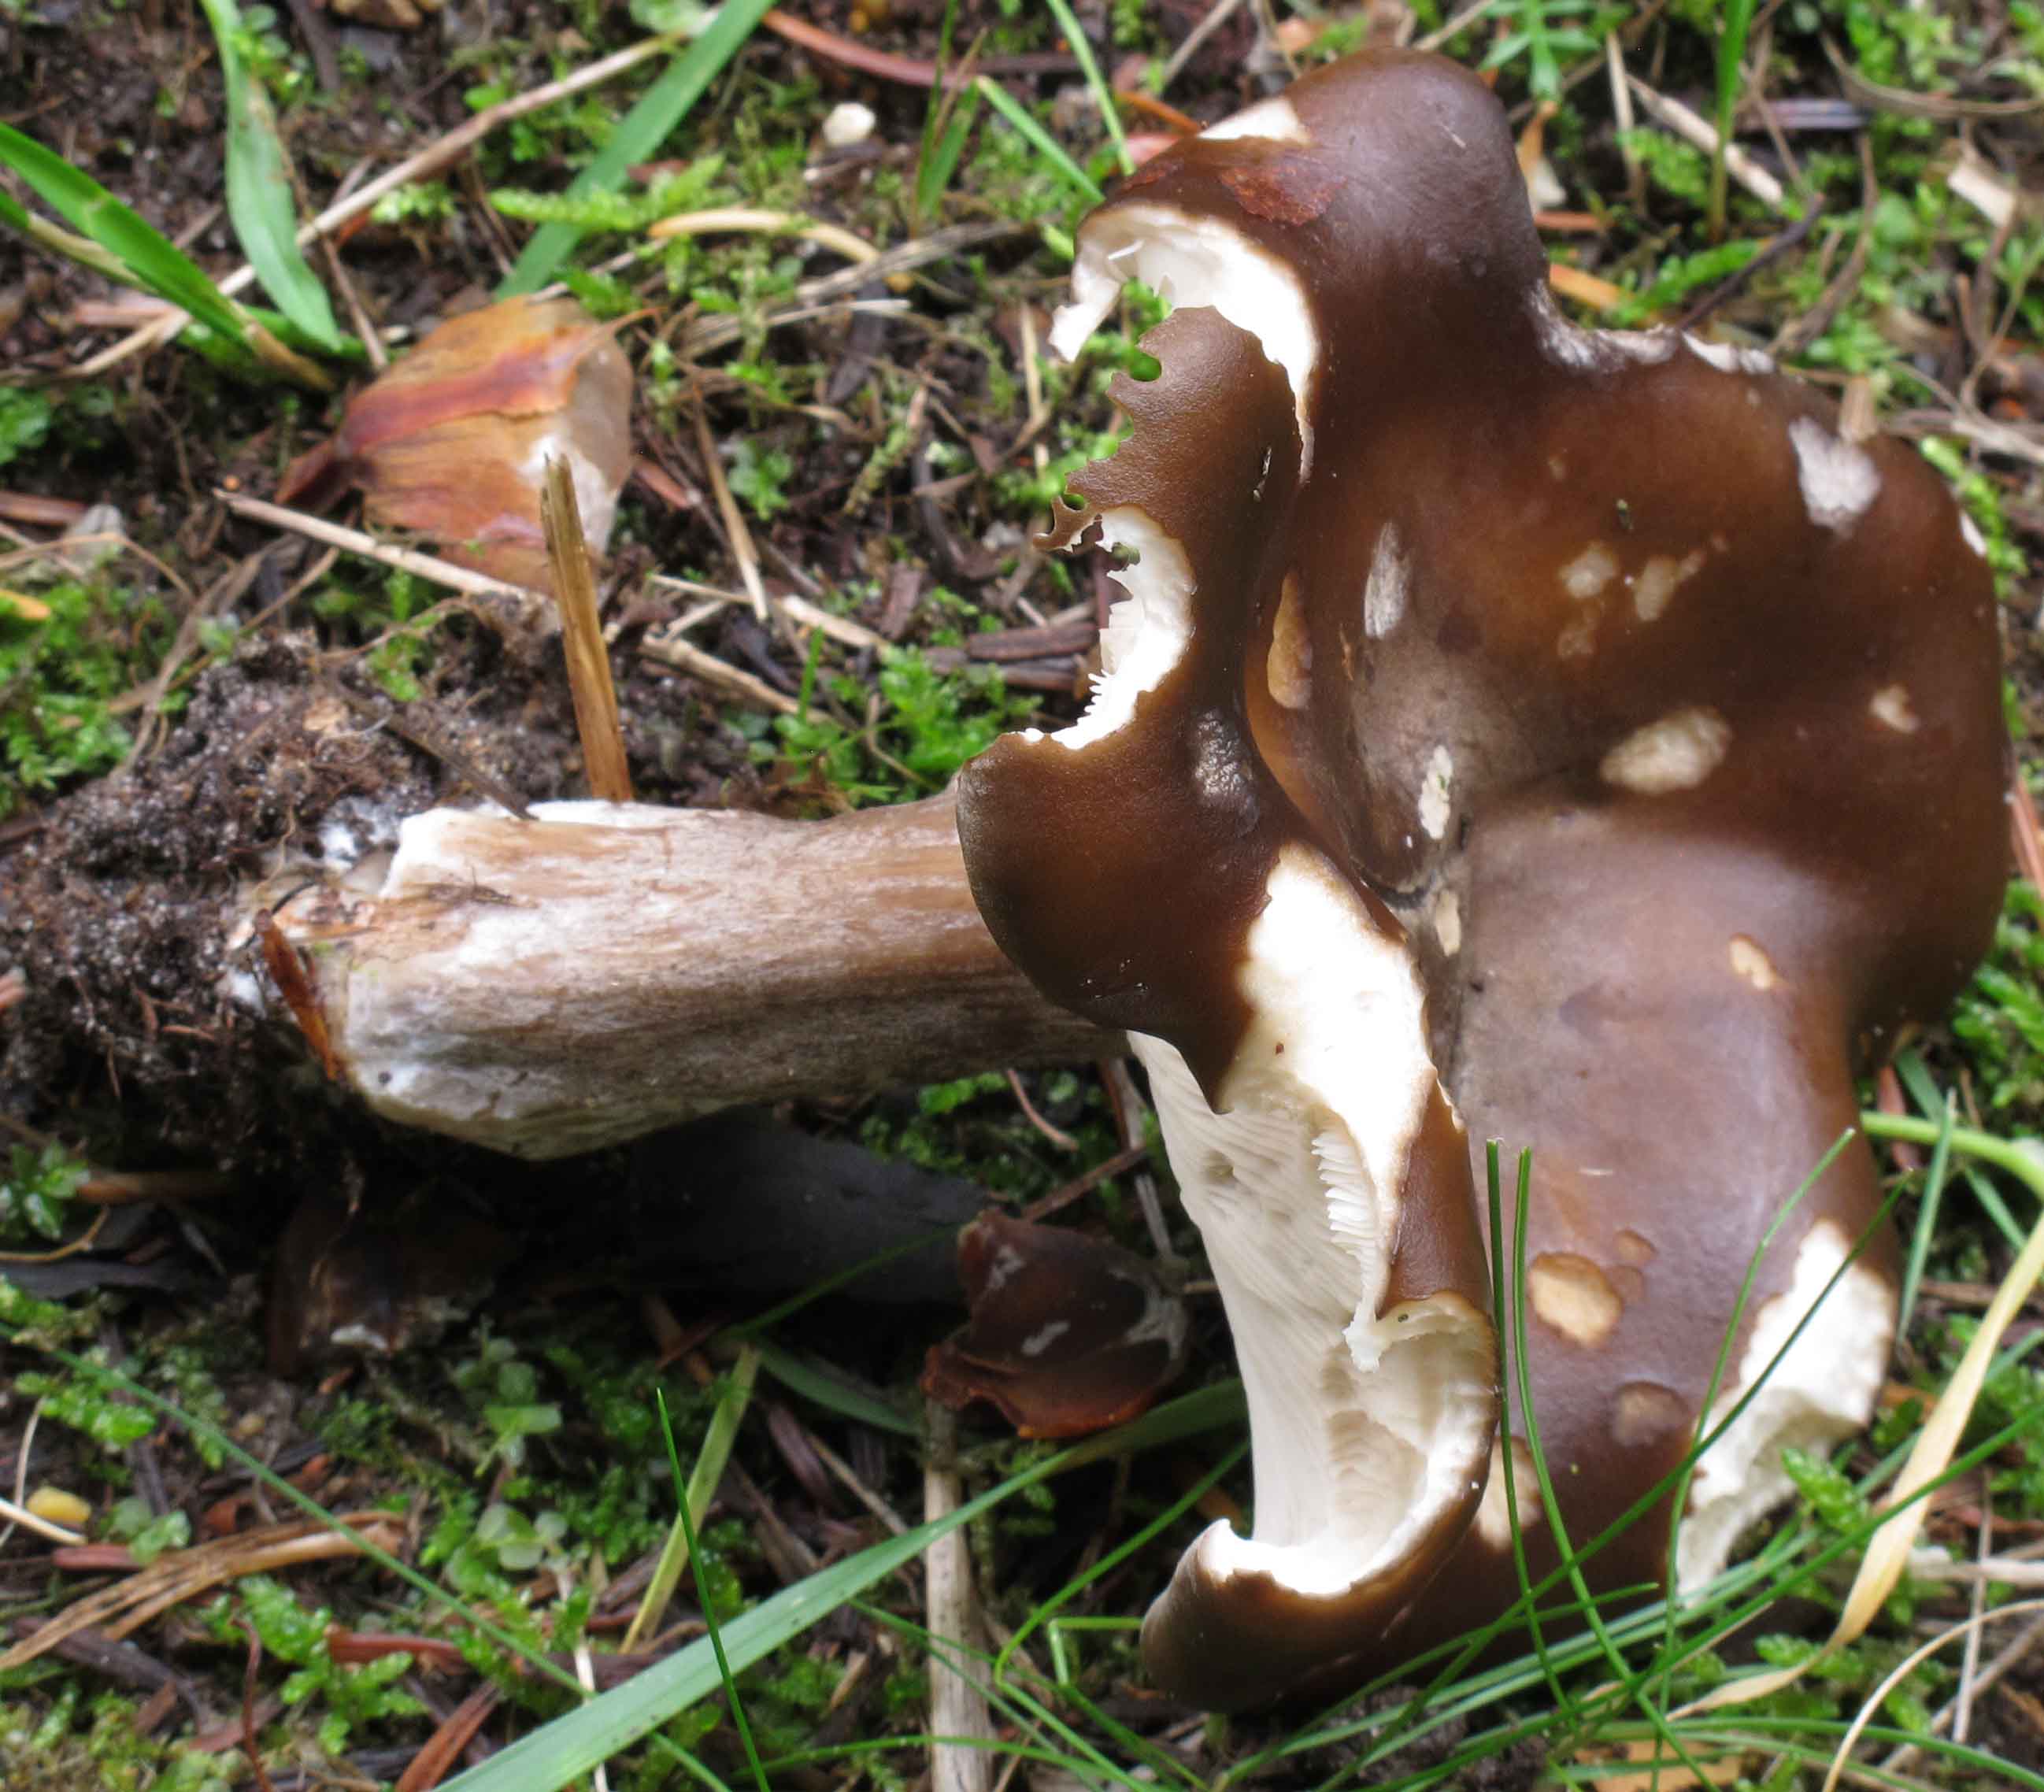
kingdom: Fungi
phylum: Basidiomycota
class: Agaricomycetes
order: Agaricales
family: Tricholomataceae
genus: Melanoleuca
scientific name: Melanoleuca grammopodia
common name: stribestokket munkehat
